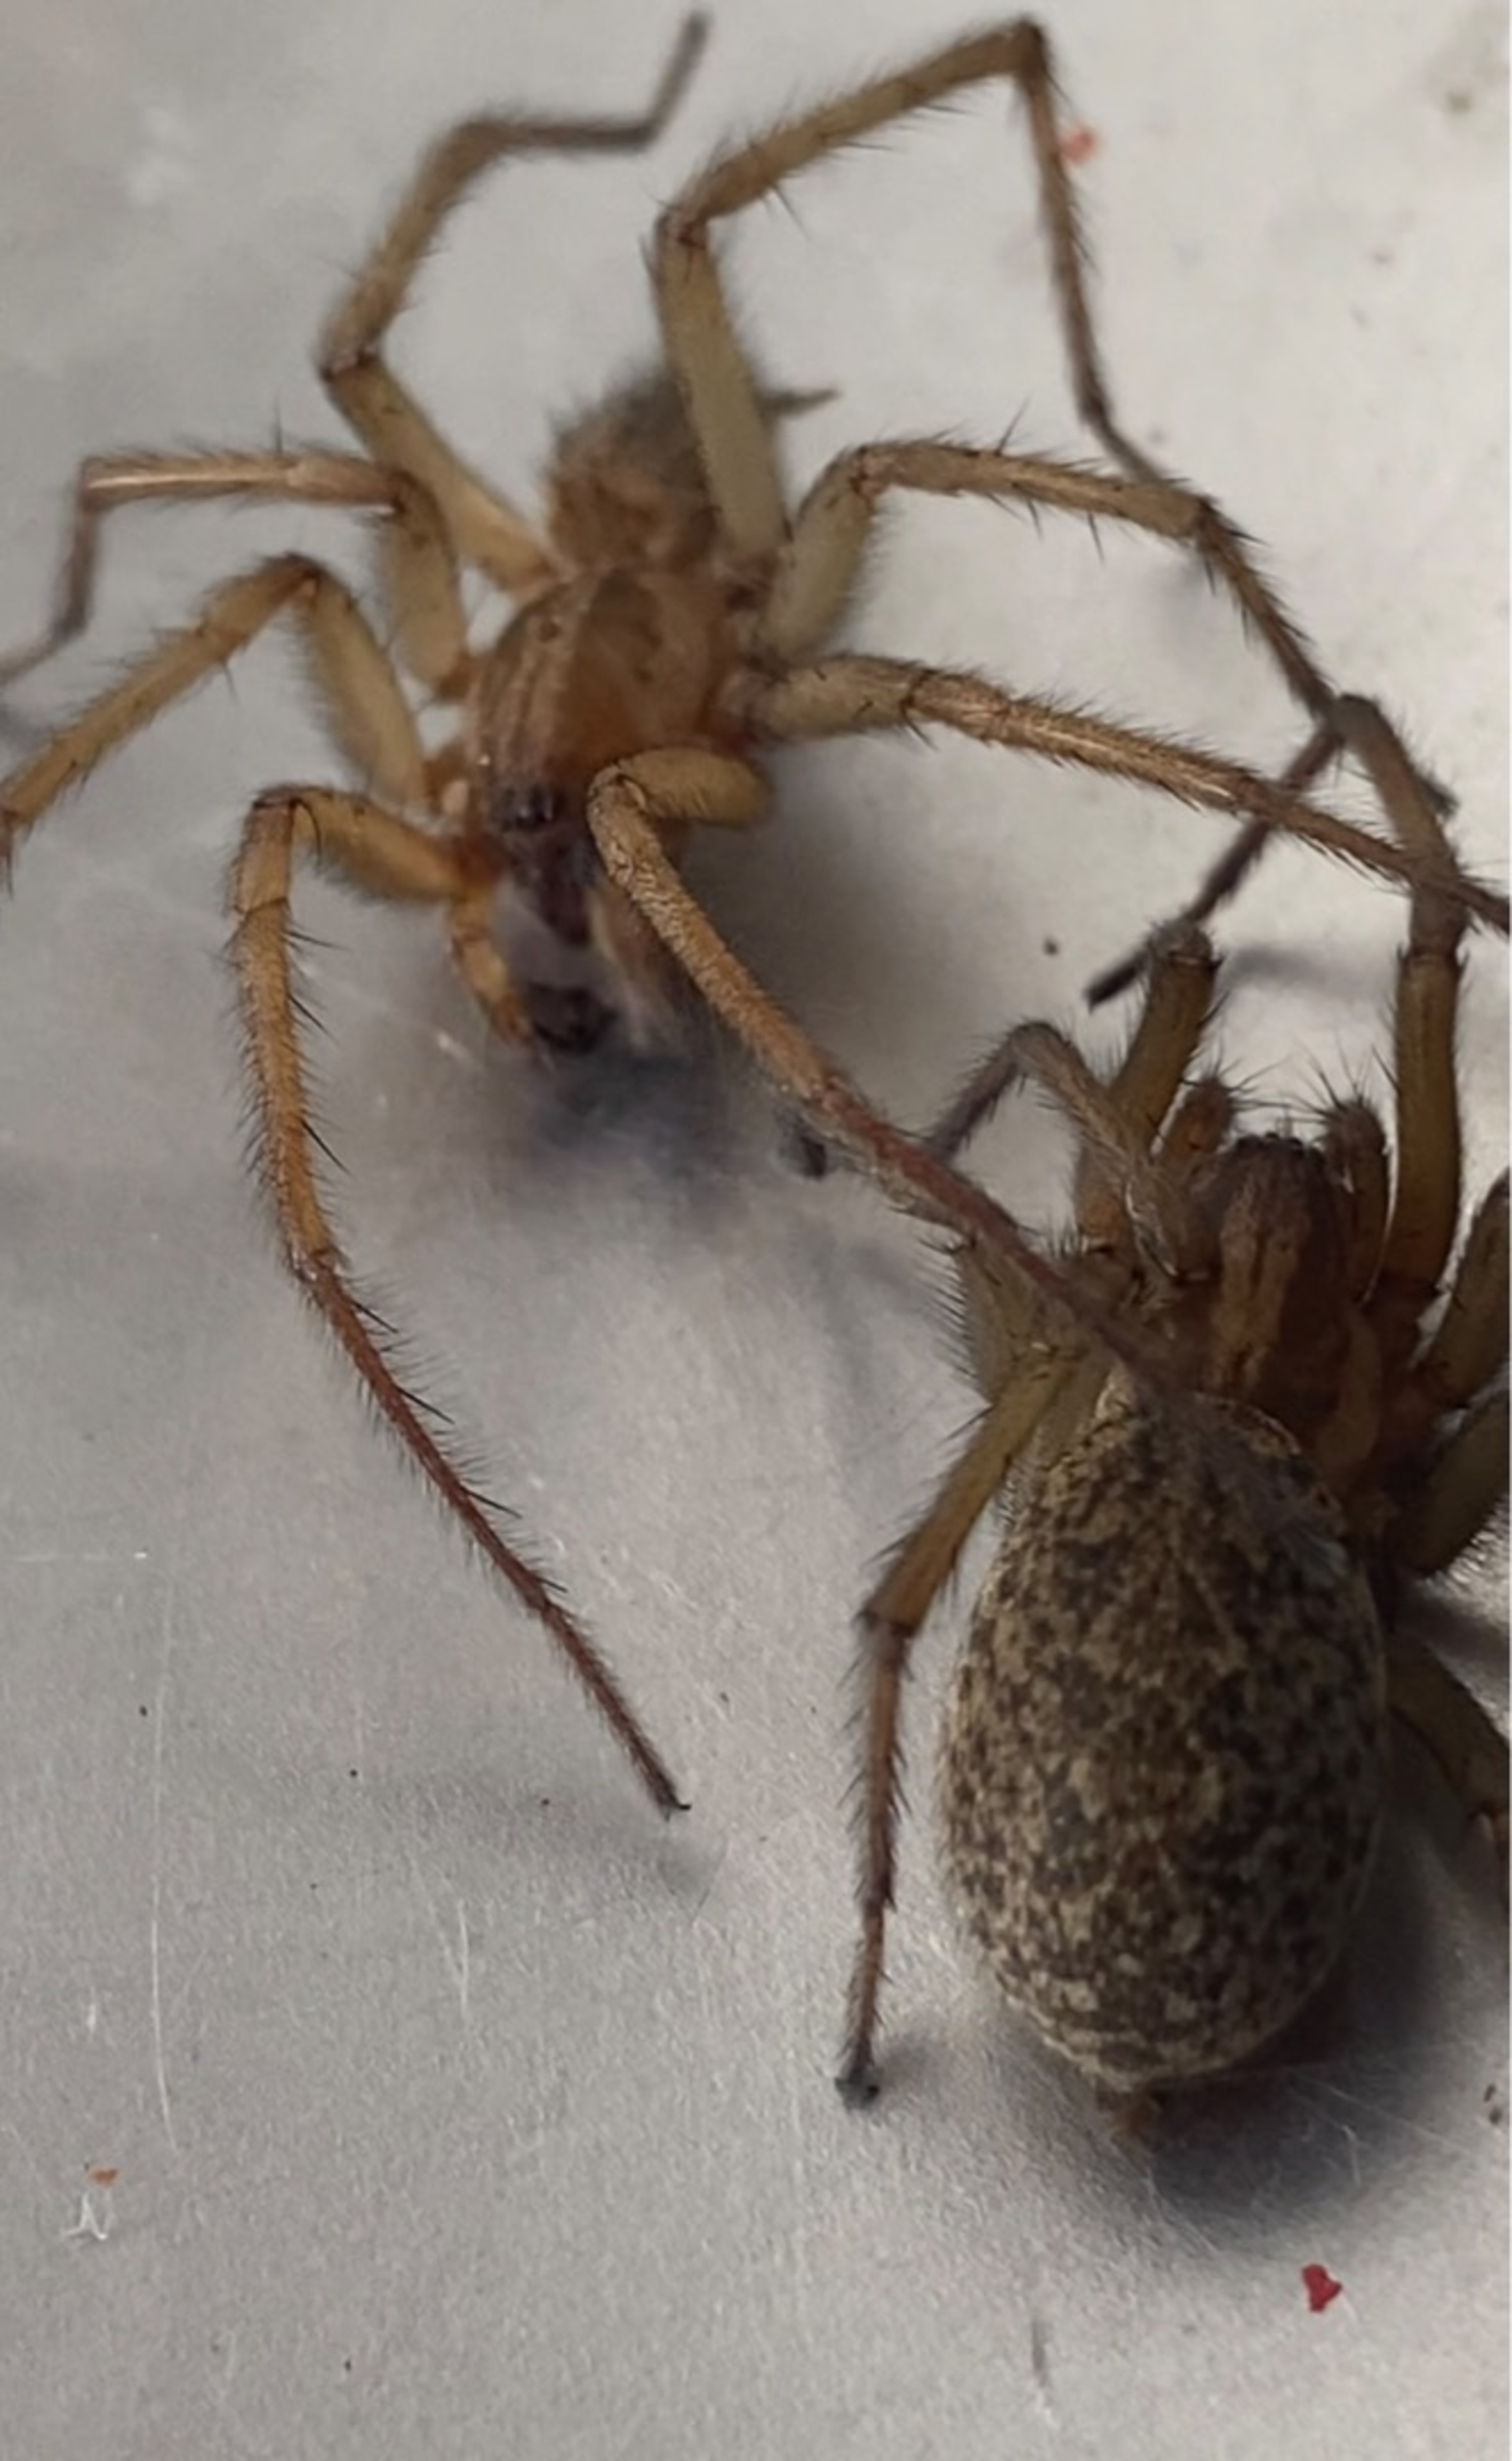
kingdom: Animalia
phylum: Arthropoda
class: Arachnida
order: Araneae
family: Agelenidae
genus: Eratigena
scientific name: Eratigena agrestis
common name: Ruderat-husedderkop
